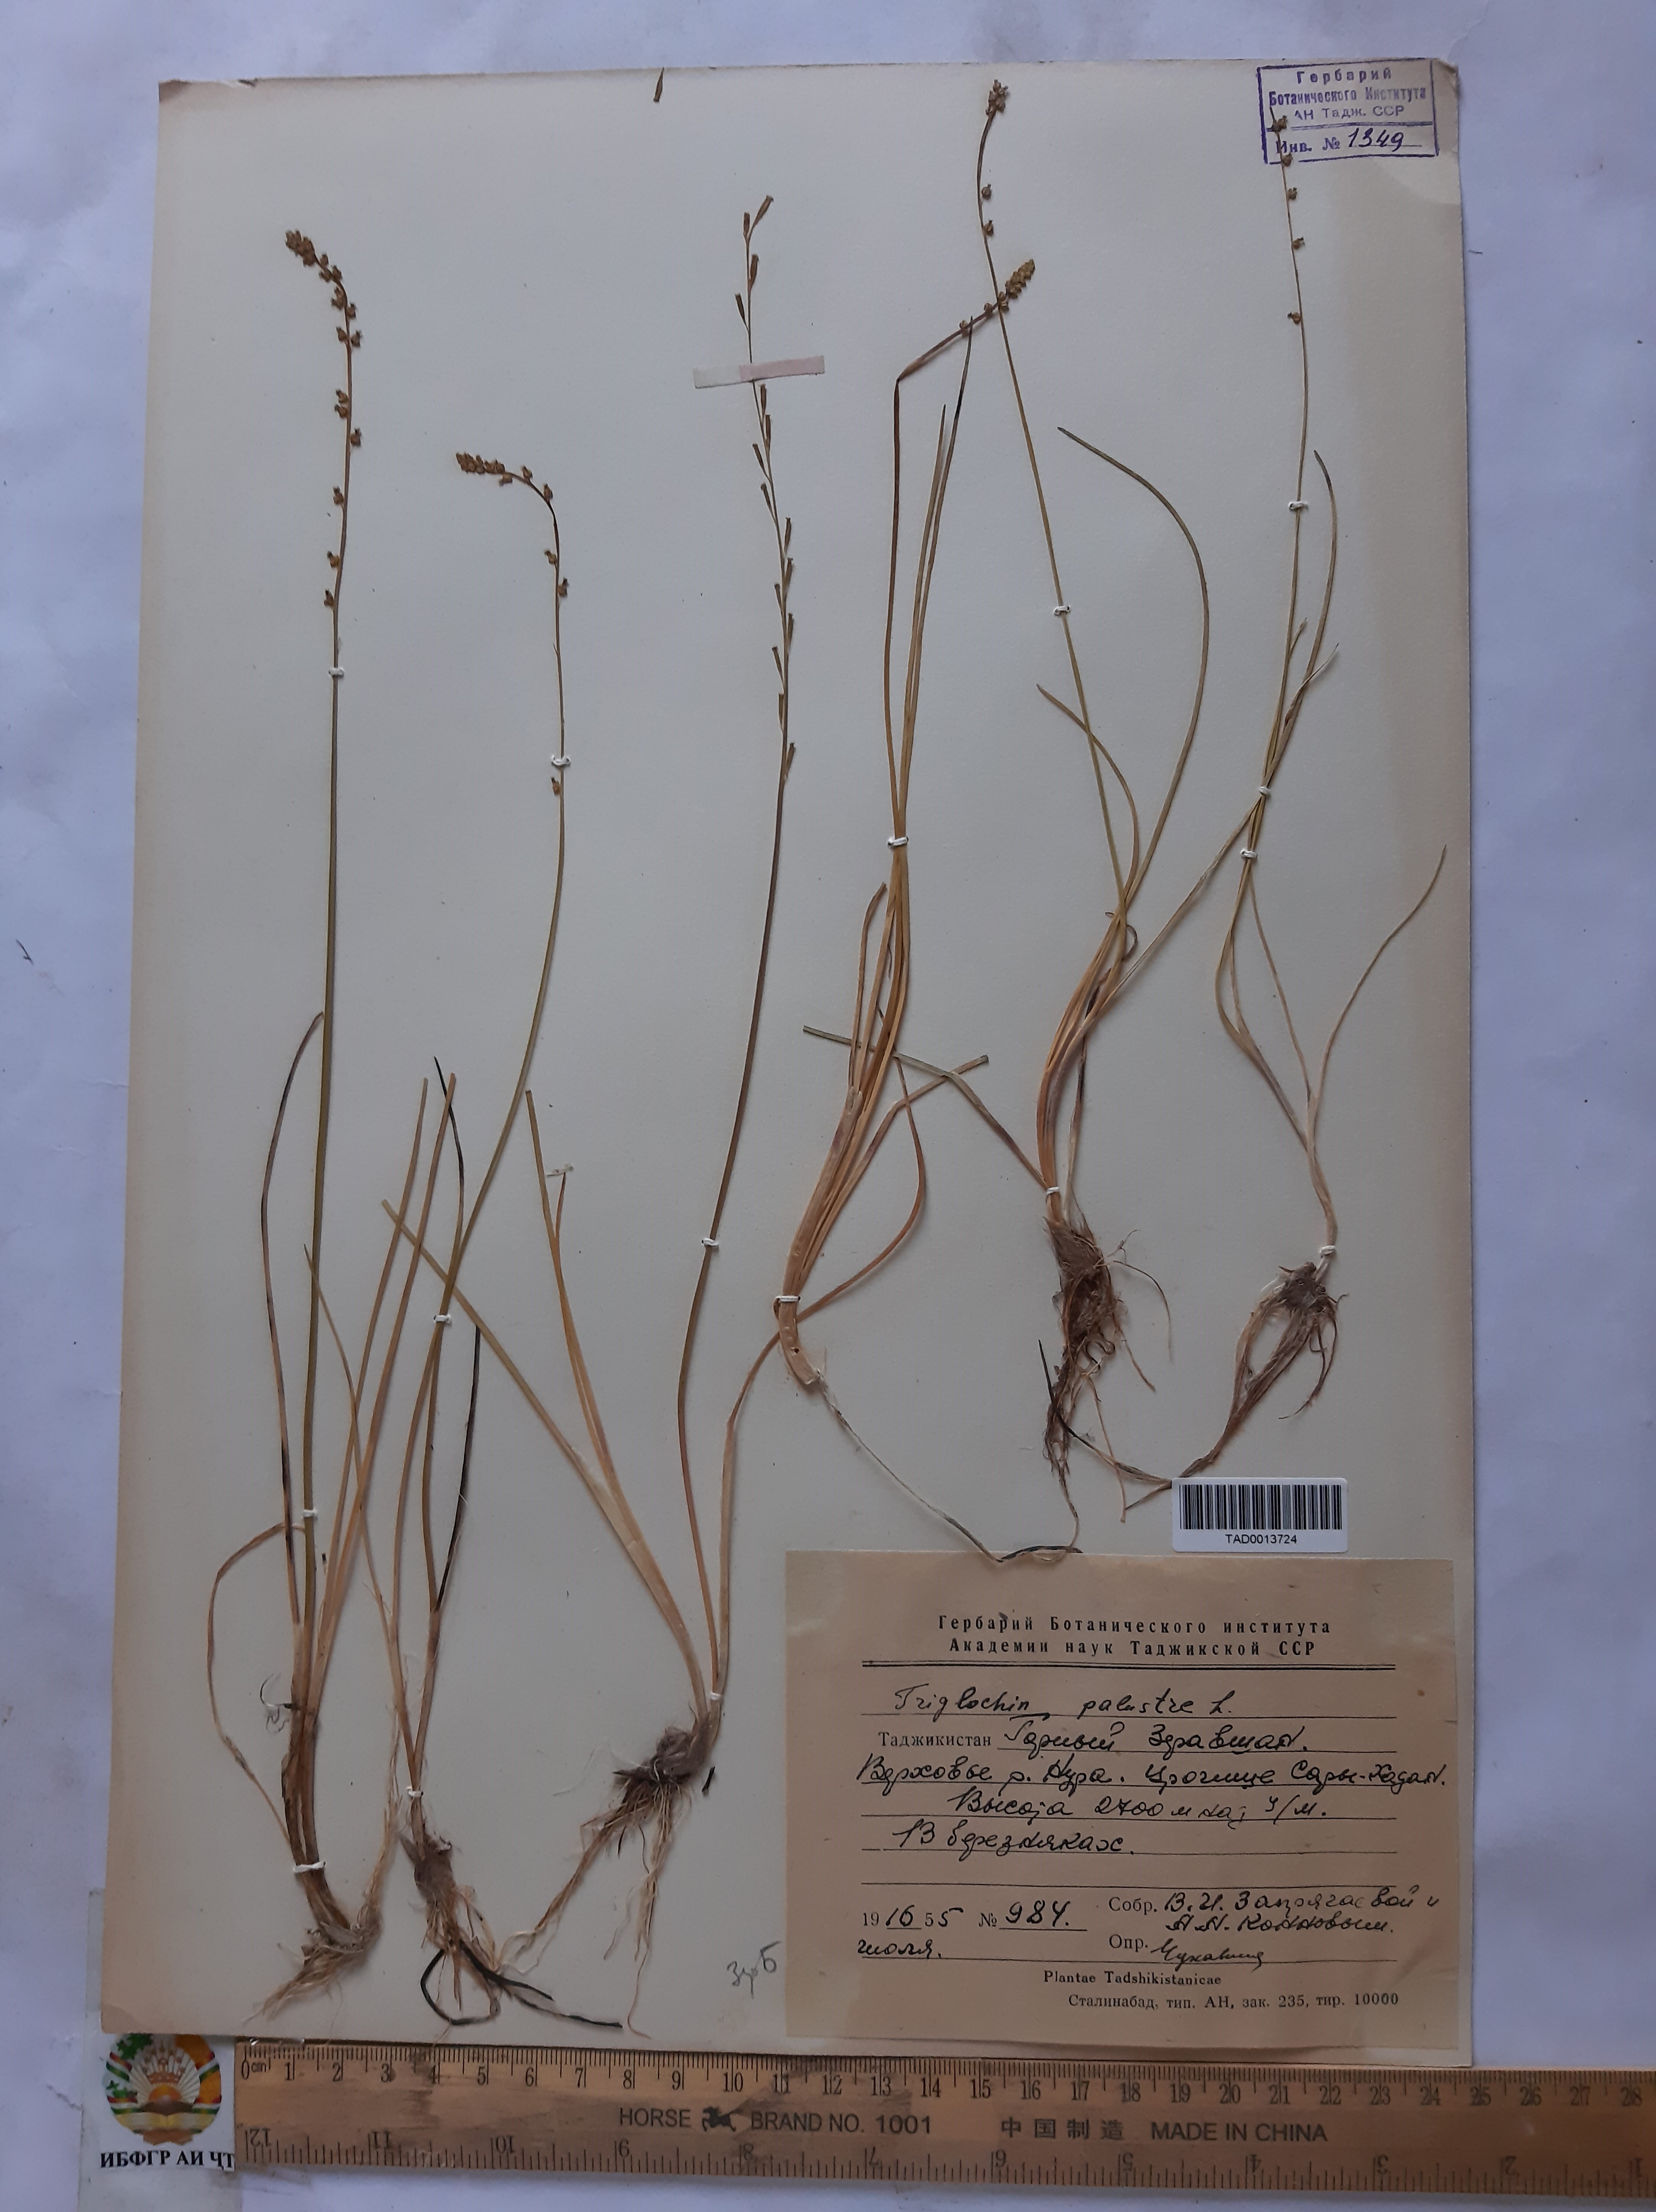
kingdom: Plantae
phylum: Tracheophyta
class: Liliopsida
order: Alismatales
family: Juncaginaceae
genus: Triglochin
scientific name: Triglochin palustris
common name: Marsh arrowgrass
